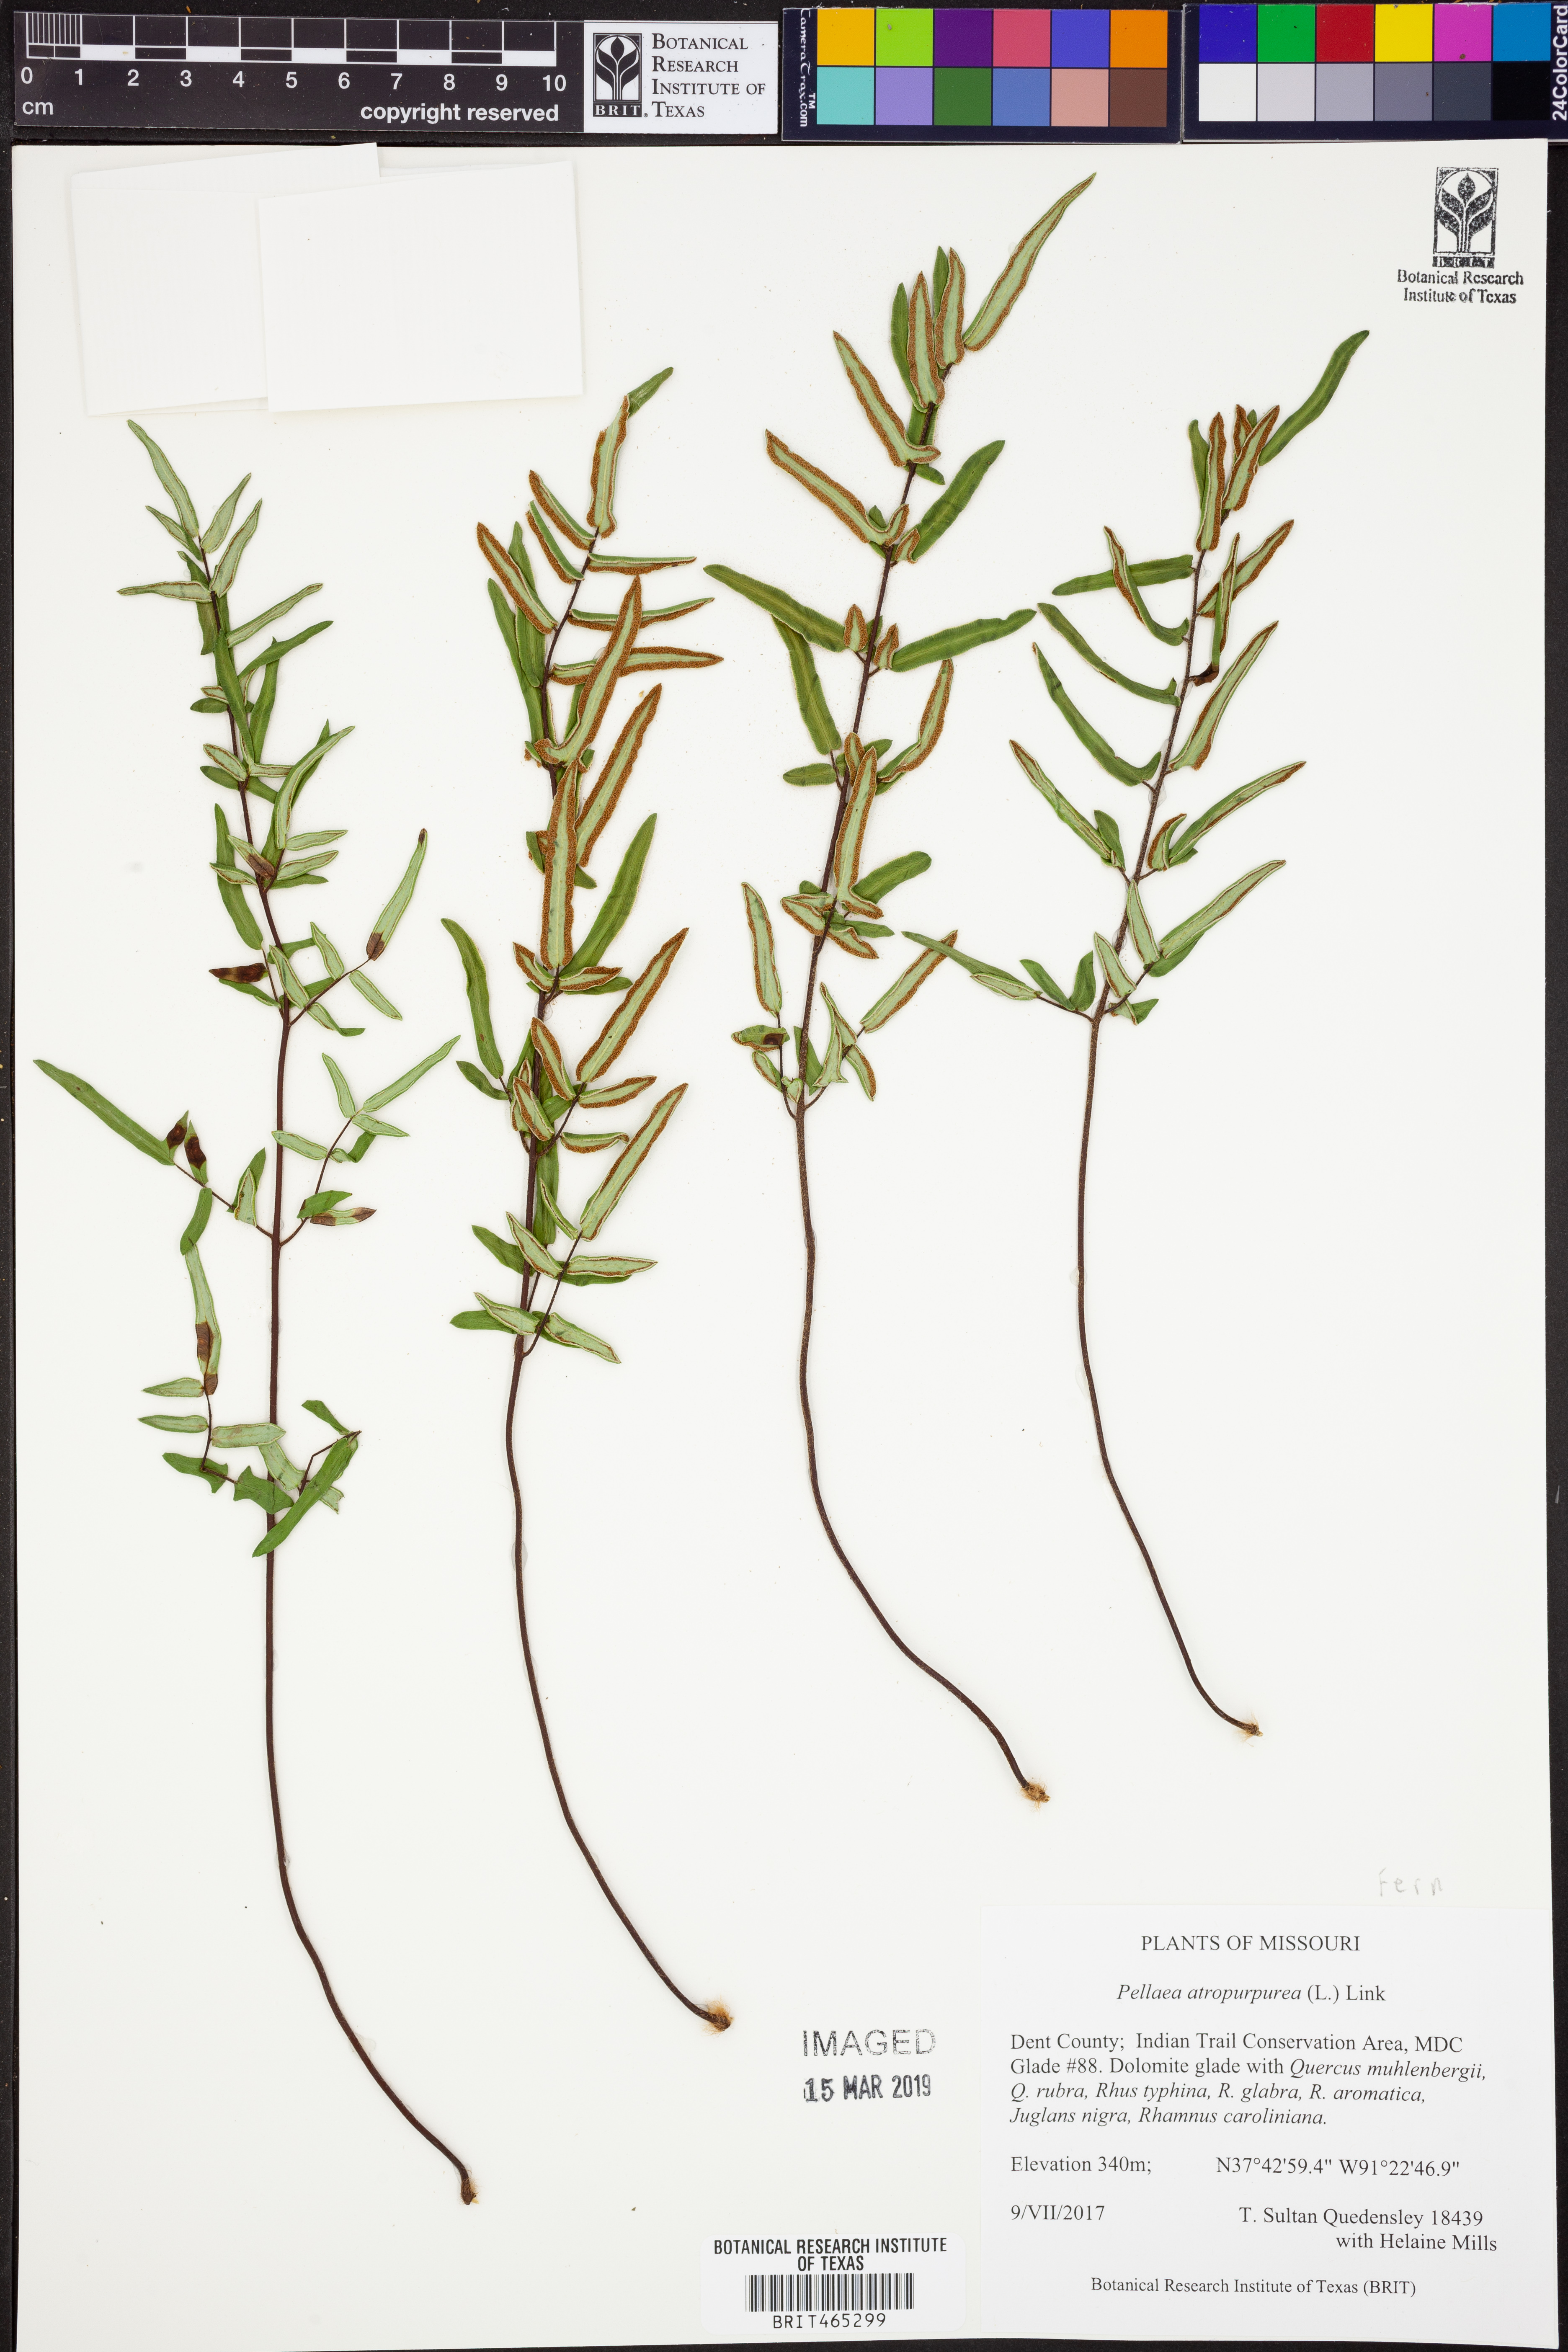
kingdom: Plantae
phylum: Tracheophyta
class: Polypodiopsida
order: Polypodiales
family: Pteridaceae
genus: Pellaea
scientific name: Pellaea atropurpurea
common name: Hairy cliffbrake
